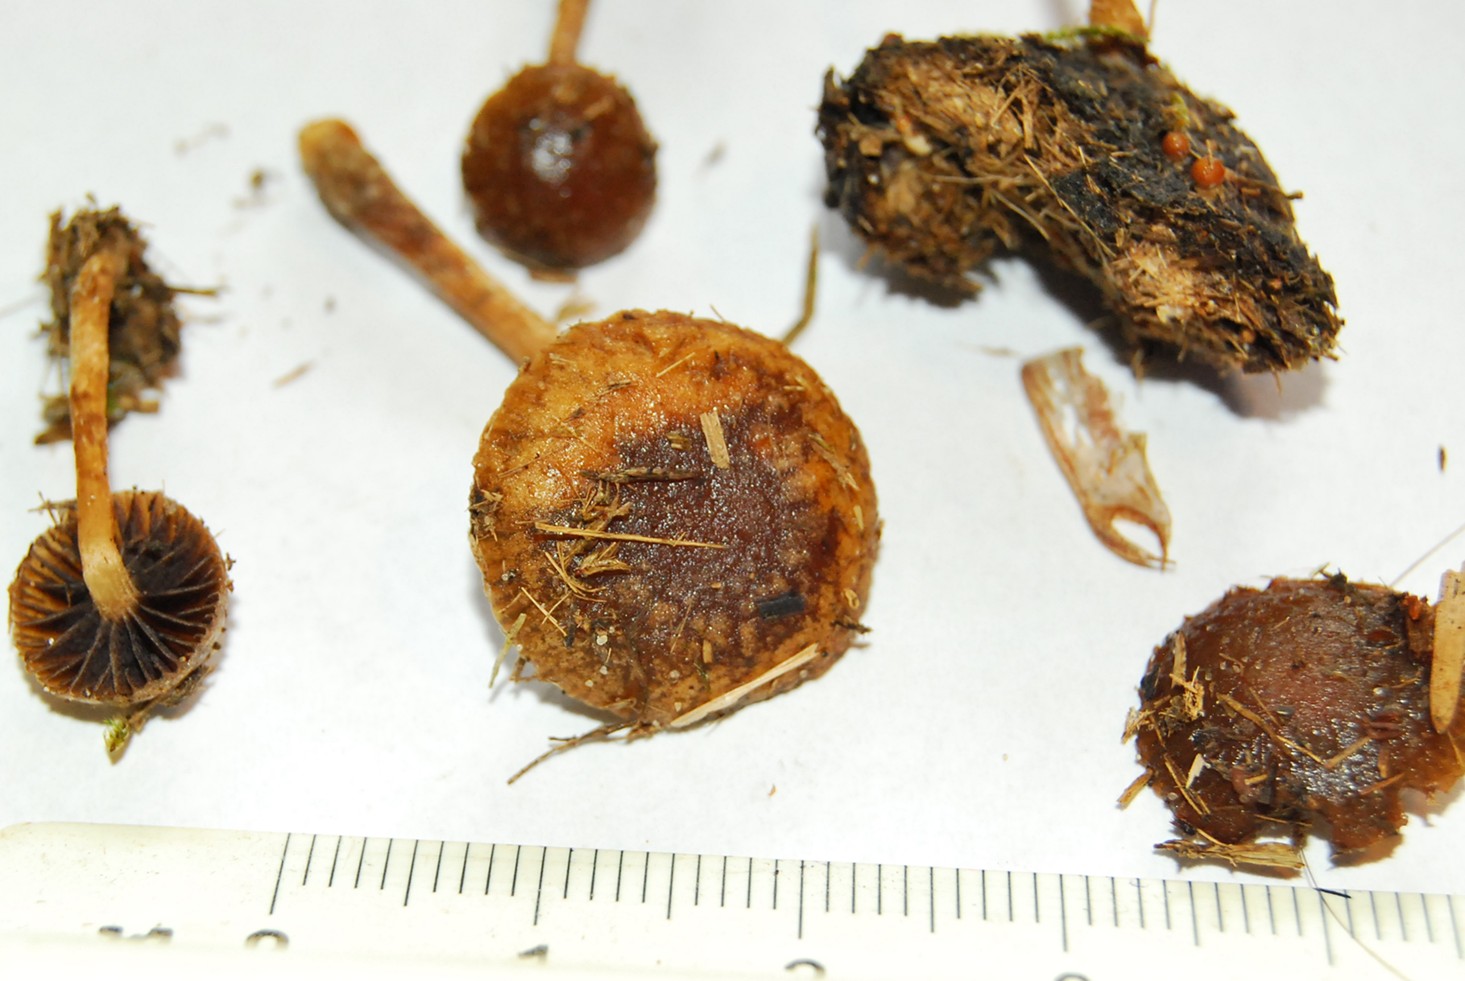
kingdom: Fungi
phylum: Basidiomycota
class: Agaricomycetes
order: Agaricales
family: Hymenogastraceae
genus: Psilocybe
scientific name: Psilocybe liniformans
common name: slimægget nøgenhat
